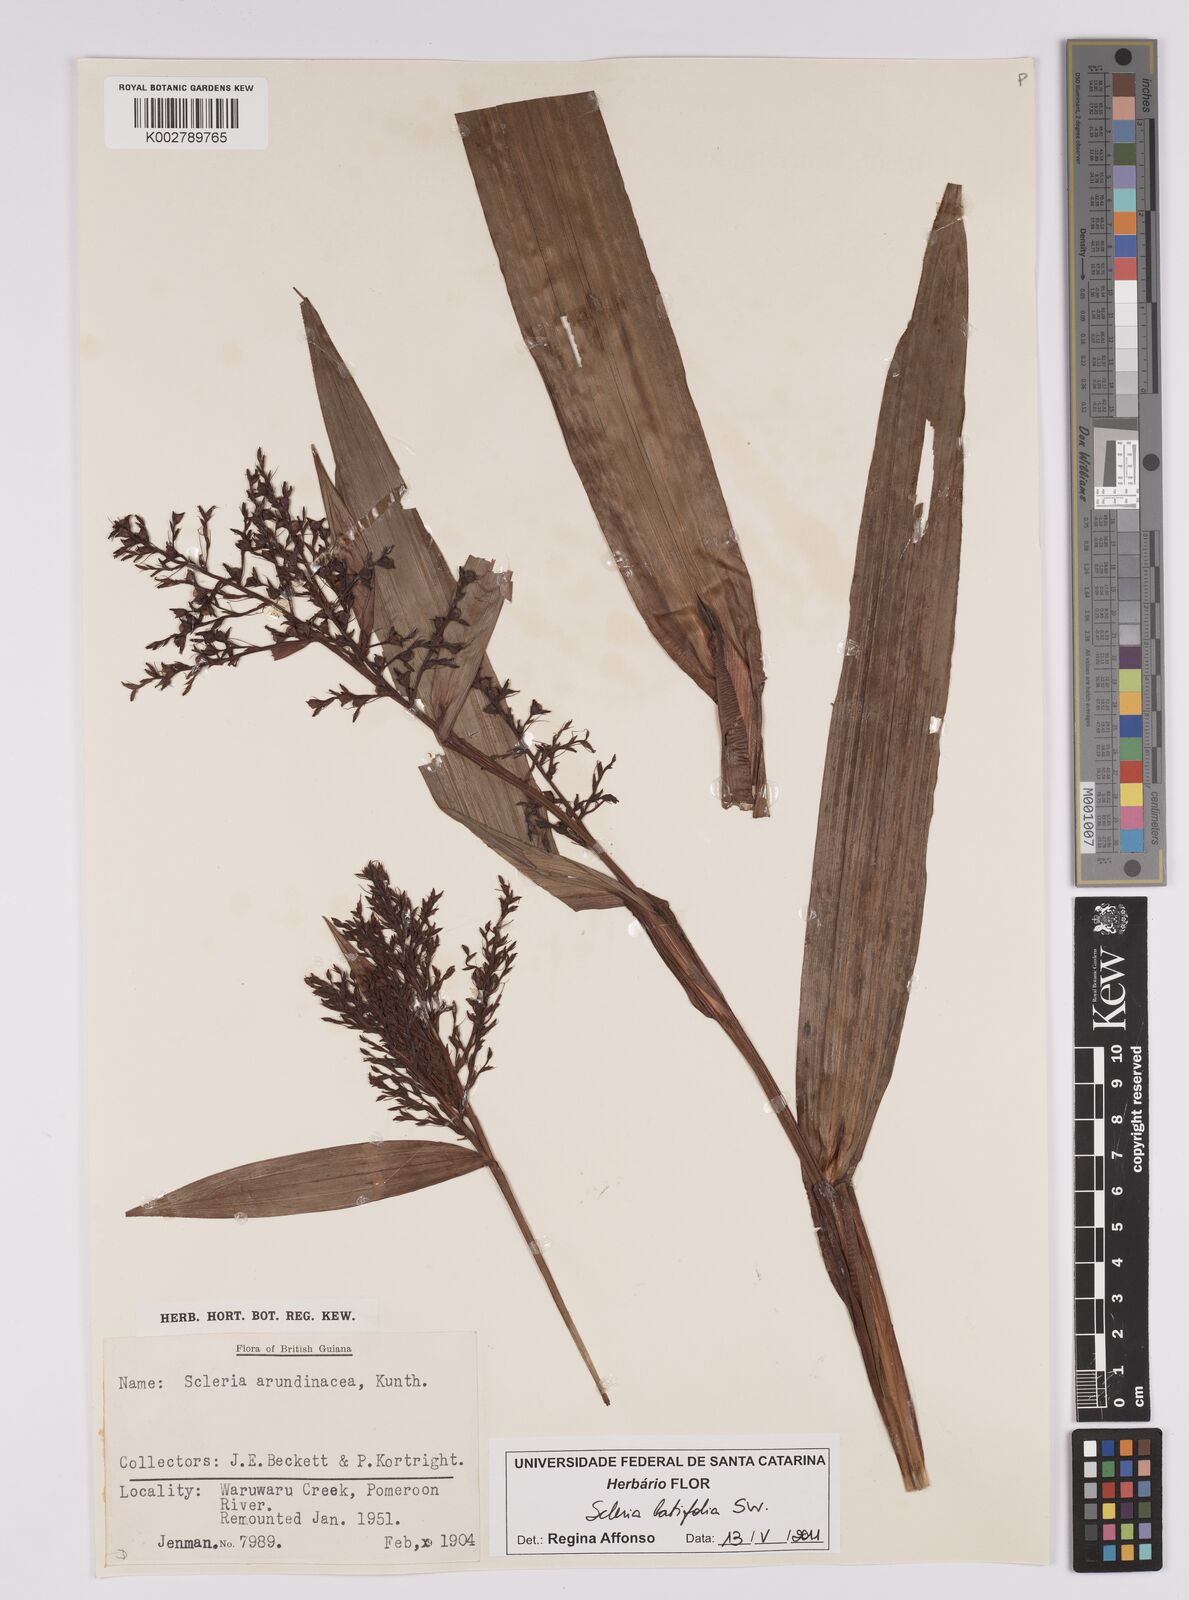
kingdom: Plantae
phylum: Tracheophyta
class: Liliopsida
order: Poales
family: Cyperaceae
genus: Scleria
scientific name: Scleria latifolia
